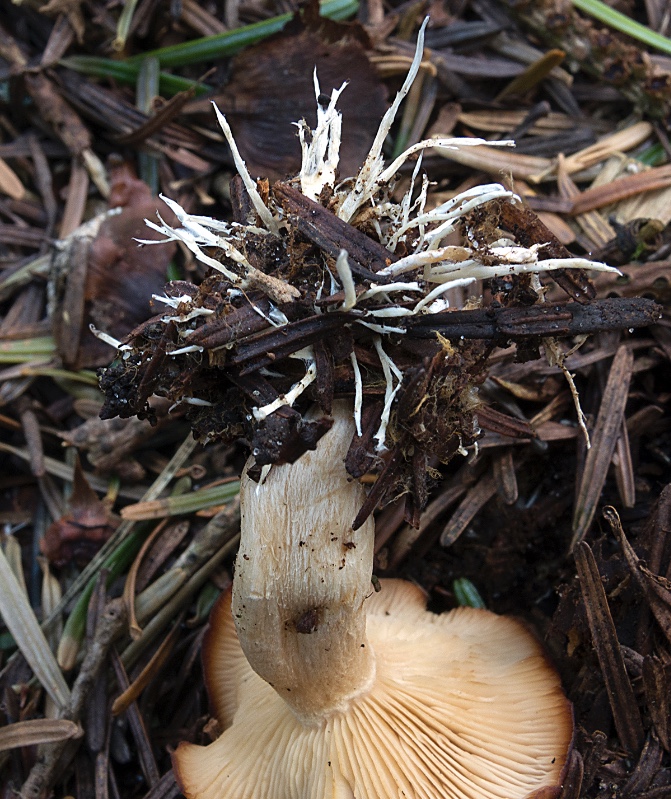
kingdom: Fungi
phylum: Basidiomycota
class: Agaricomycetes
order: Agaricales
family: Tricholomataceae
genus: Rhizocybe
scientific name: Rhizocybe vermicularis
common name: hyfestrengs-tragthat
